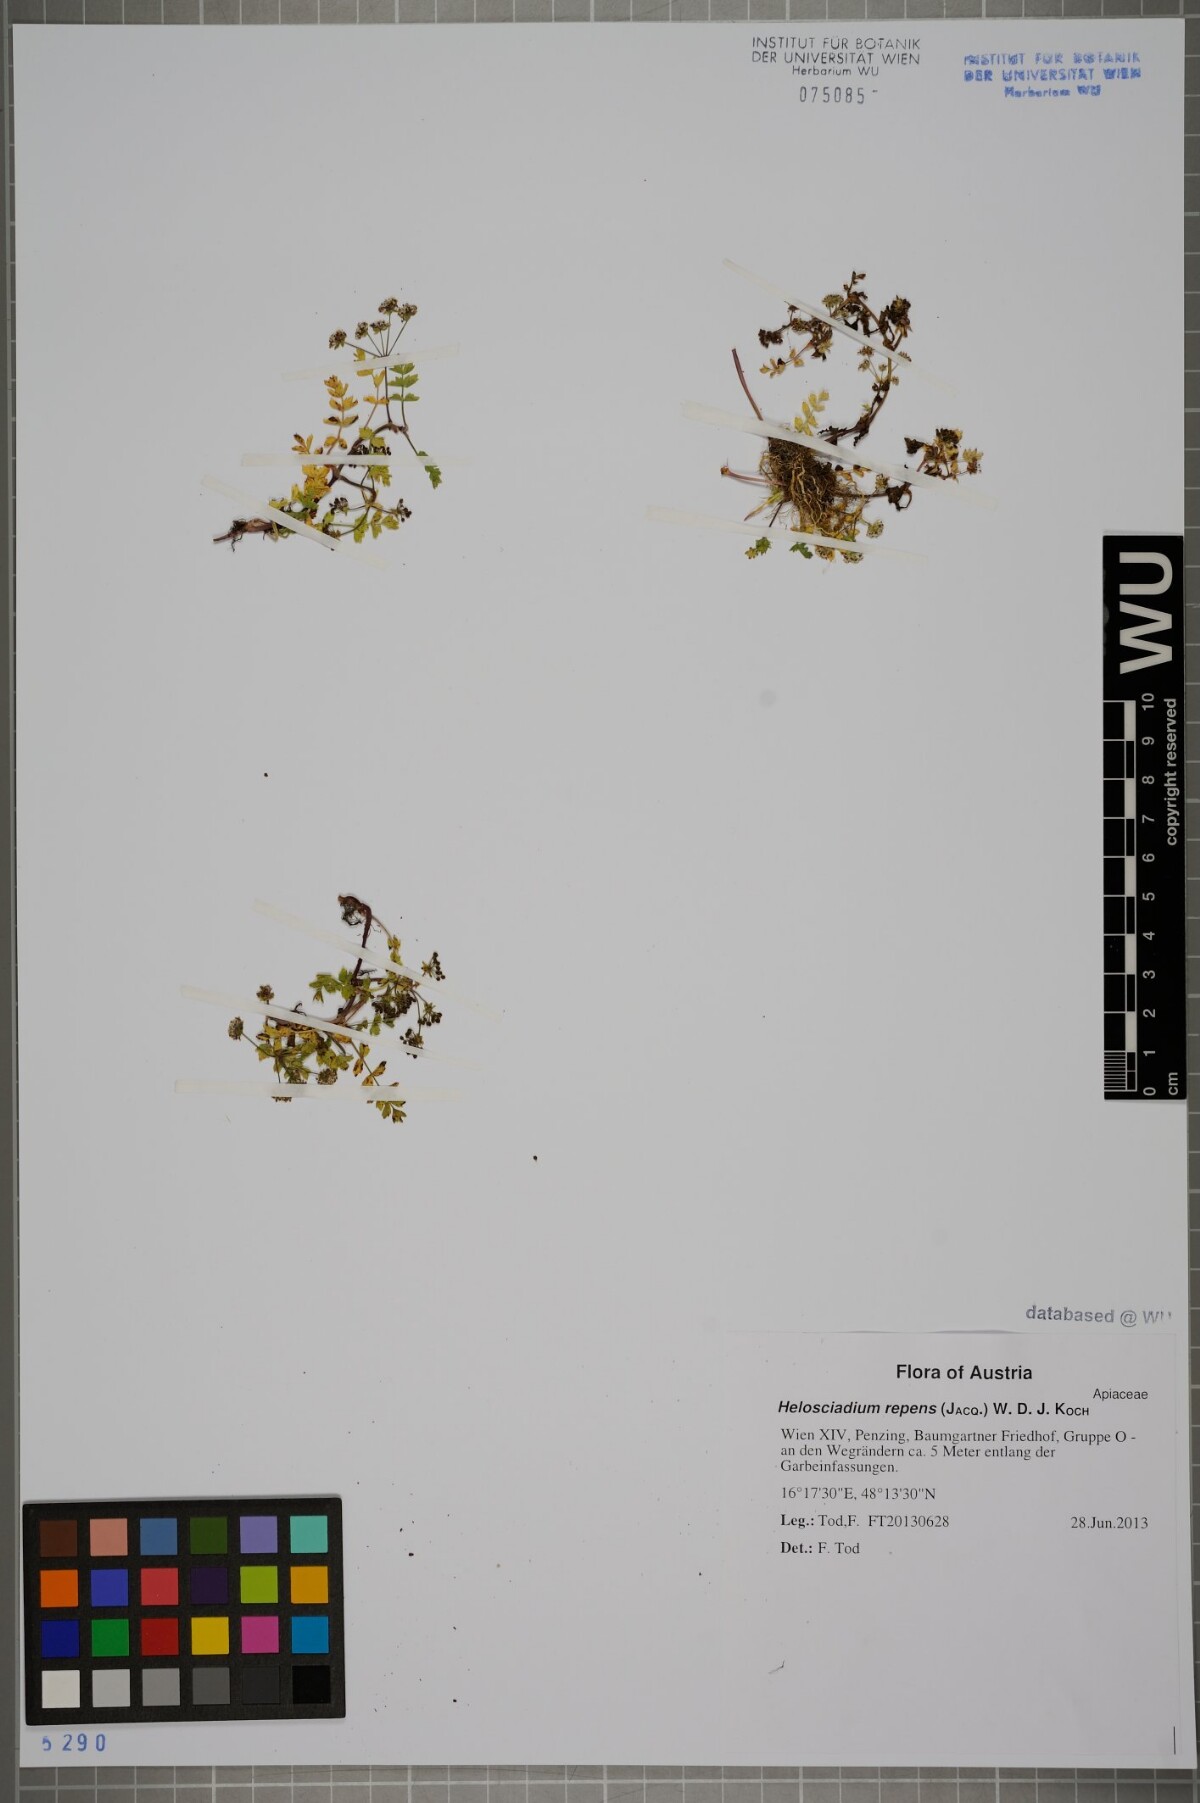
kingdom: Plantae
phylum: Tracheophyta
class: Magnoliopsida
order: Apiales
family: Apiaceae
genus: Helosciadium
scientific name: Helosciadium repens
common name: Creeping marshwort
